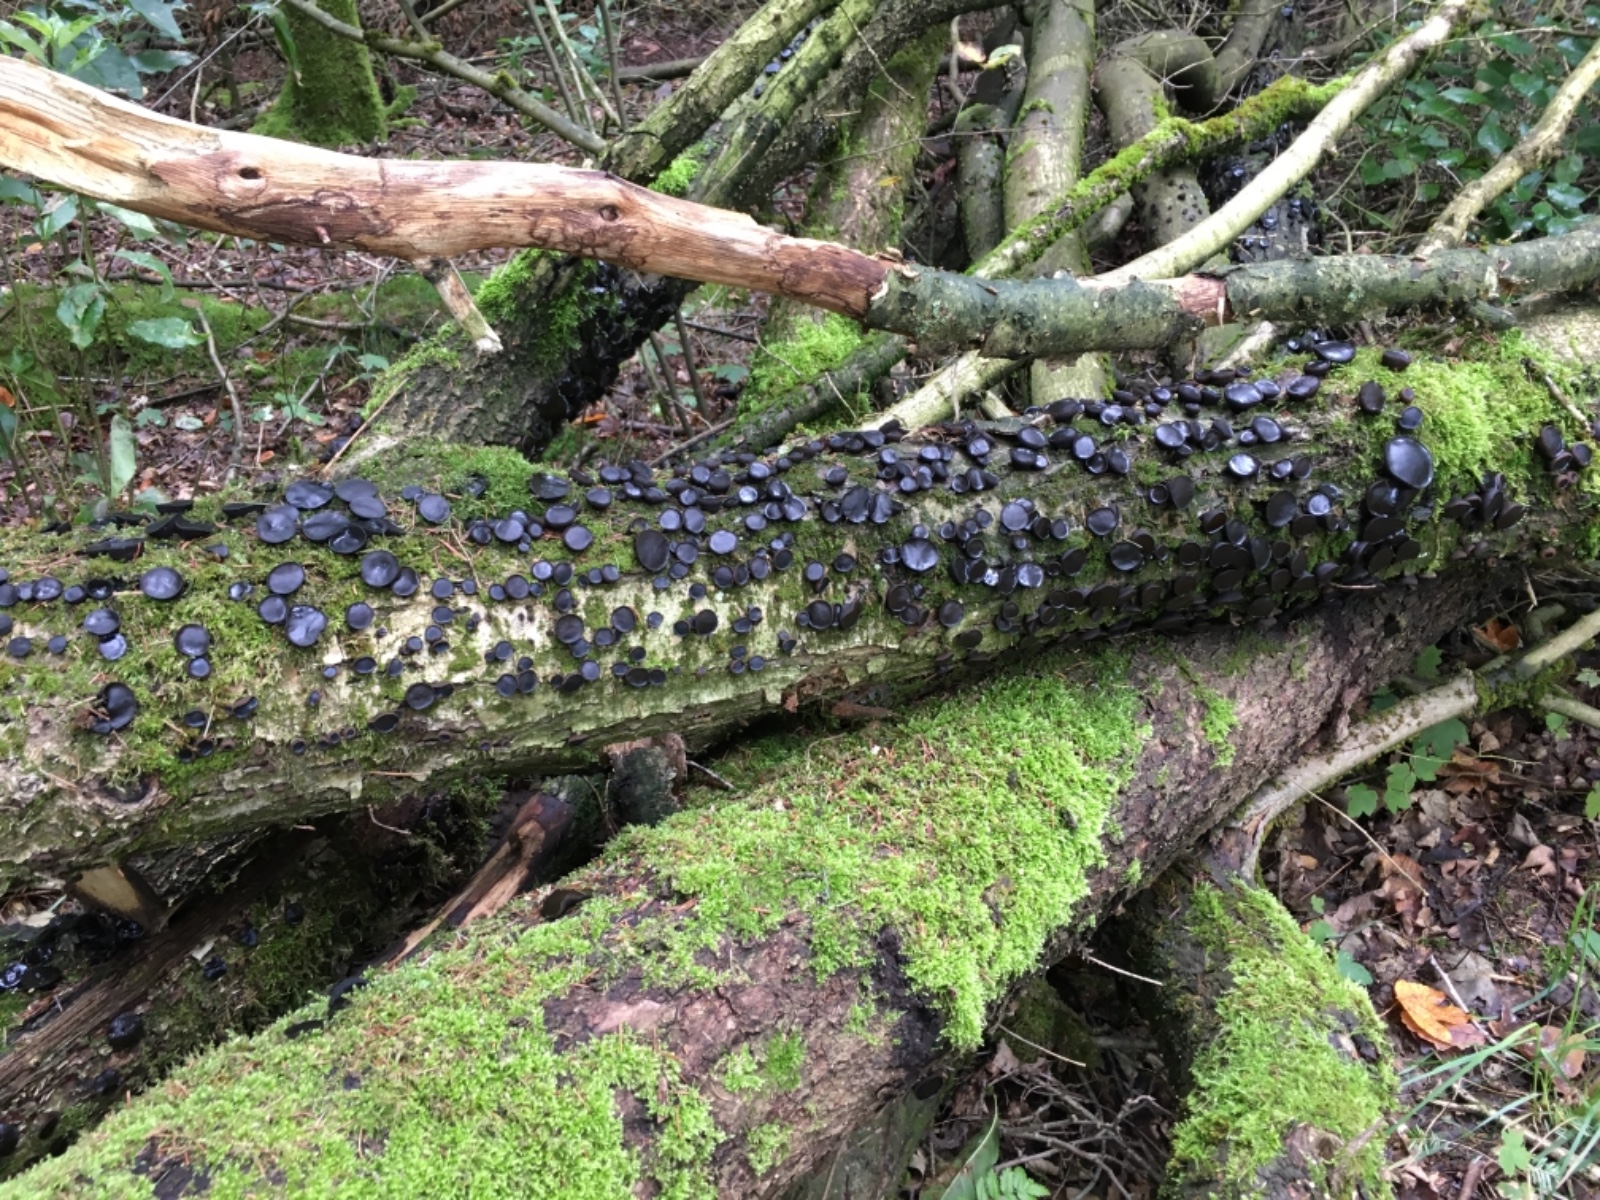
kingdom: Fungi
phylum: Ascomycota
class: Leotiomycetes
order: Phacidiales
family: Phacidiaceae
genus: Bulgaria
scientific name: Bulgaria inquinans
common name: afsmittende topsvamp
